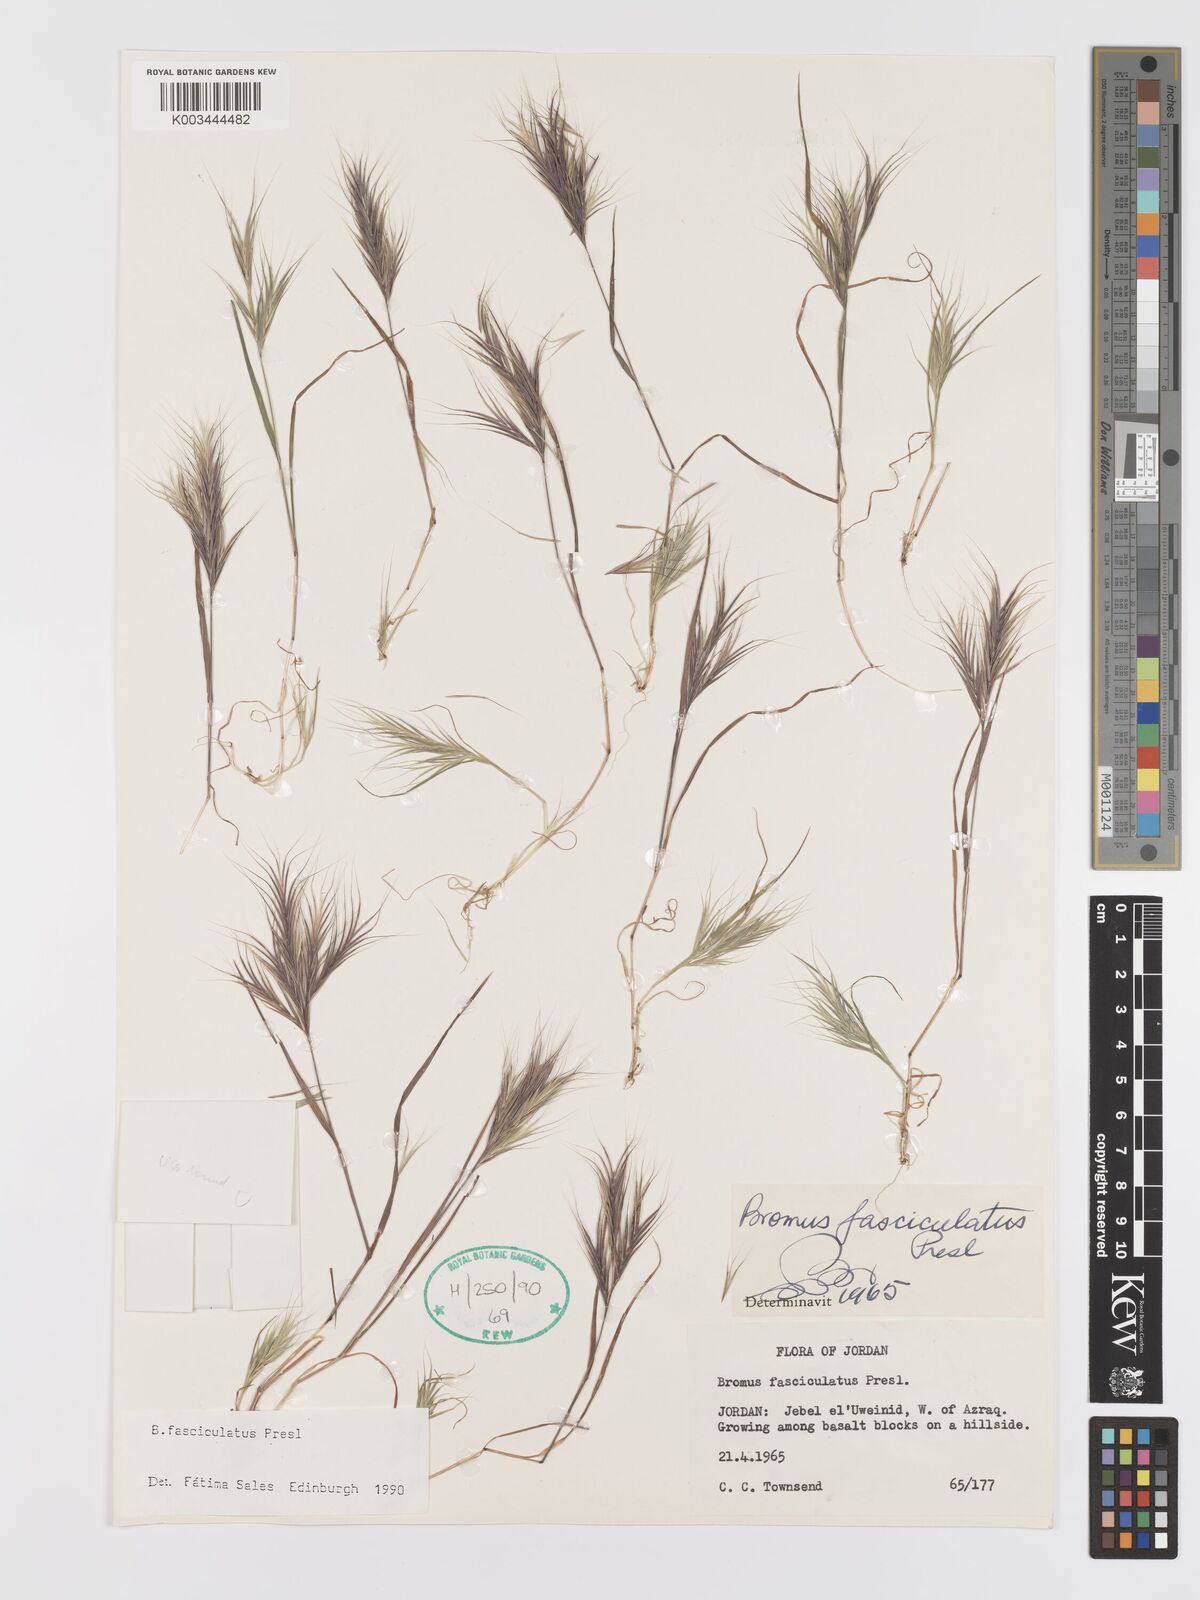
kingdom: Plantae
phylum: Tracheophyta
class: Liliopsida
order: Poales
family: Poaceae
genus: Bromus
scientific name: Bromus fasciculatus
